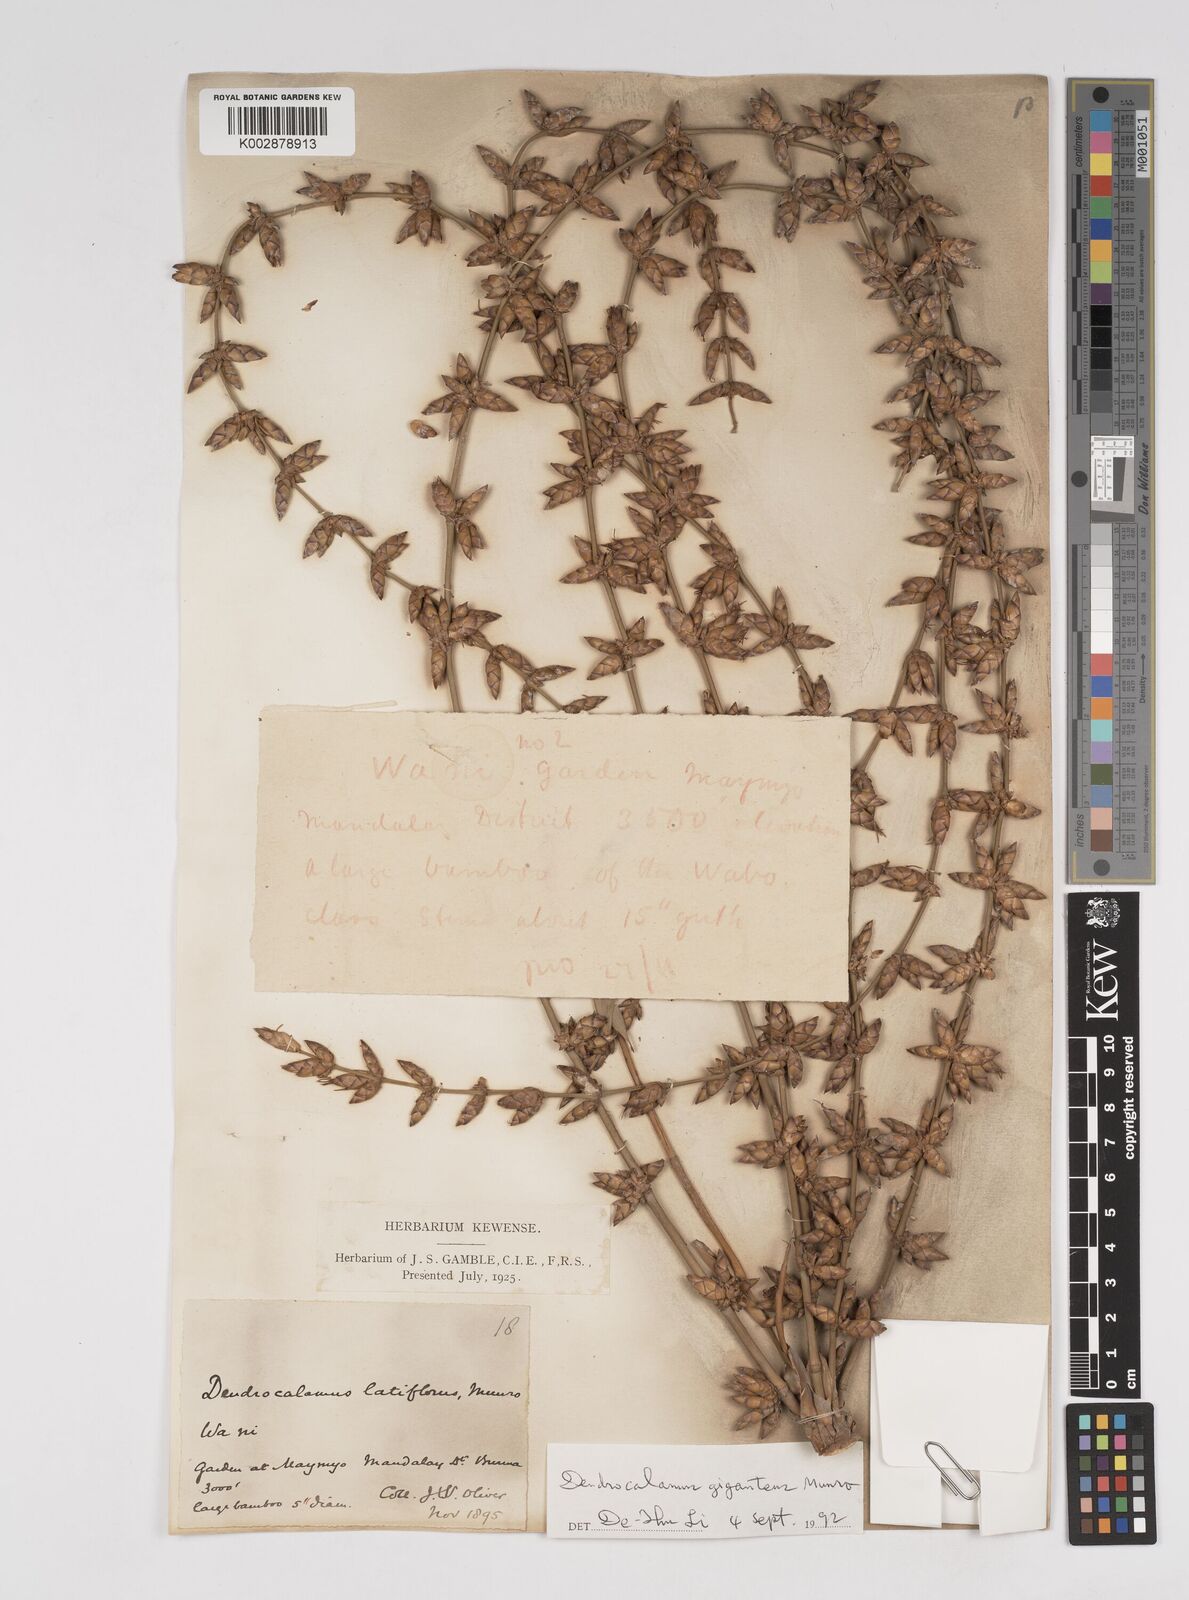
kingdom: Plantae
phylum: Tracheophyta
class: Liliopsida
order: Poales
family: Poaceae
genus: Dendrocalamus
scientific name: Dendrocalamus latiflorus
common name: Giant bamboo
